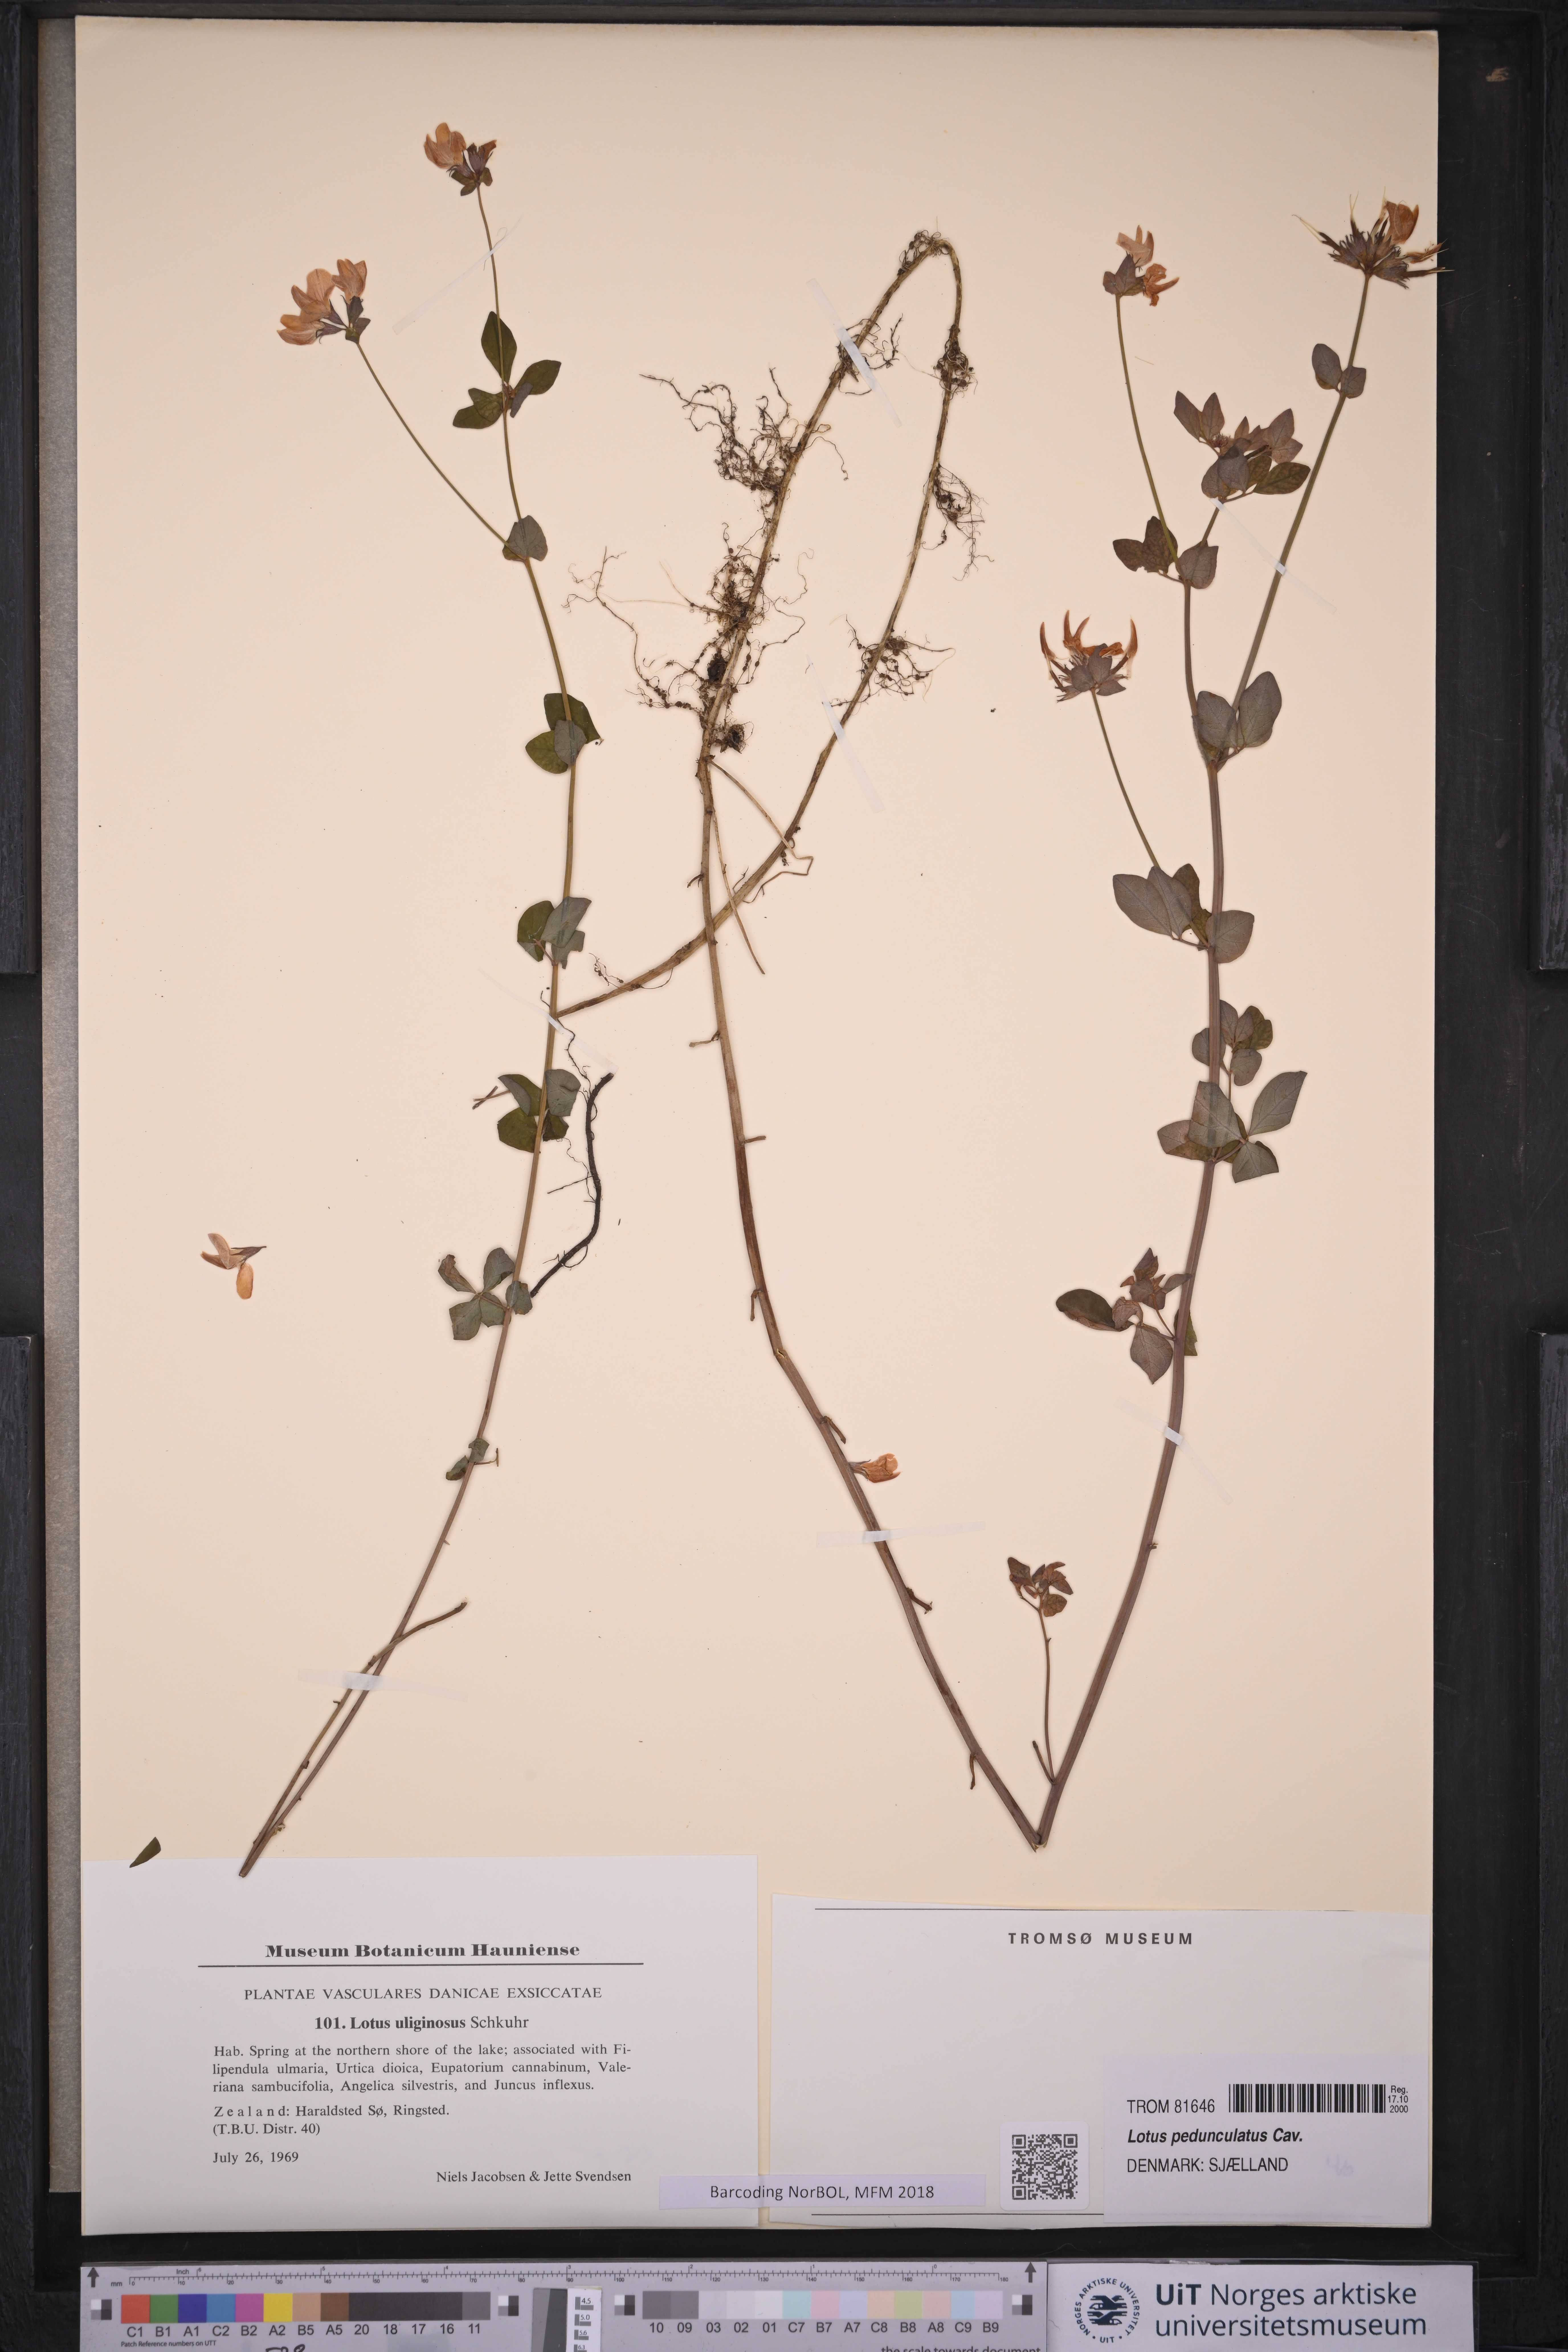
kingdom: Plantae
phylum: Tracheophyta
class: Magnoliopsida
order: Fabales
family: Fabaceae
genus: Lotus
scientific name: Lotus pedunculatus
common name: Greater birdsfoot-trefoil
